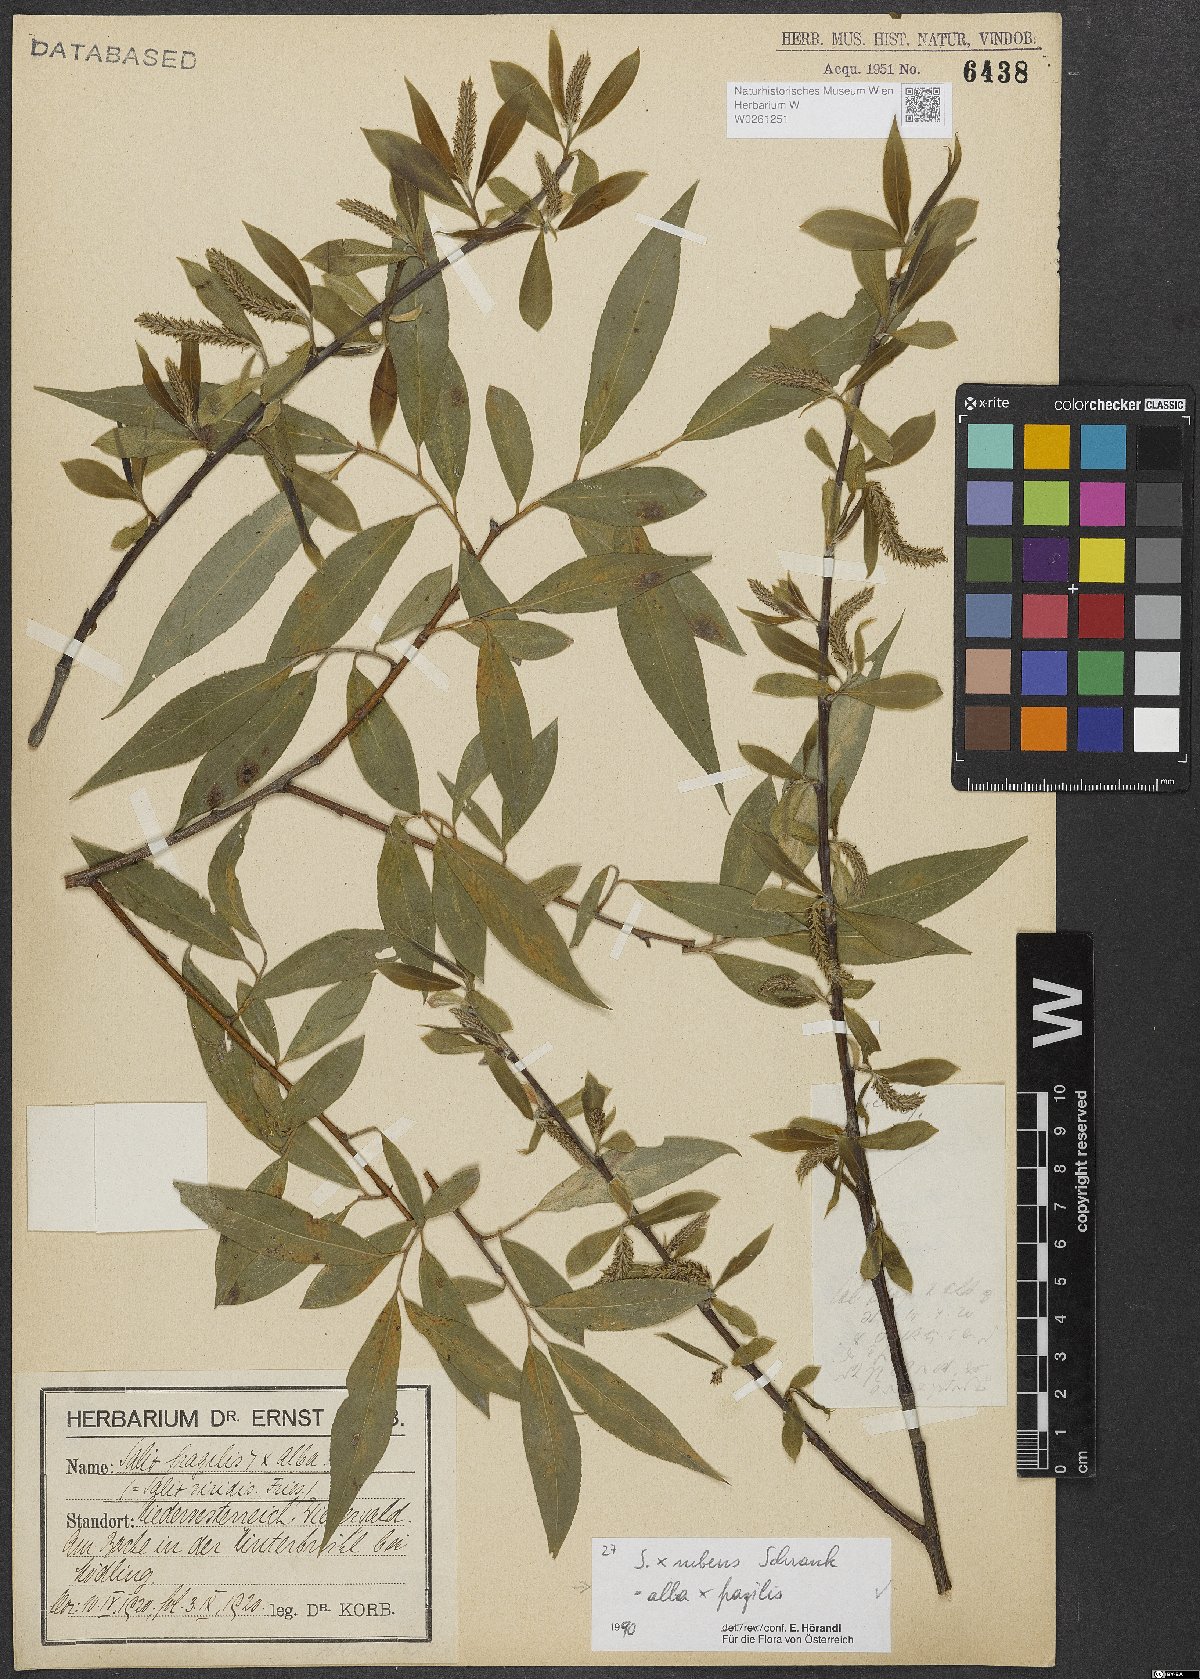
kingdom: Plantae
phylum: Tracheophyta
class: Magnoliopsida
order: Malpighiales
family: Salicaceae
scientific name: Salicaceae
